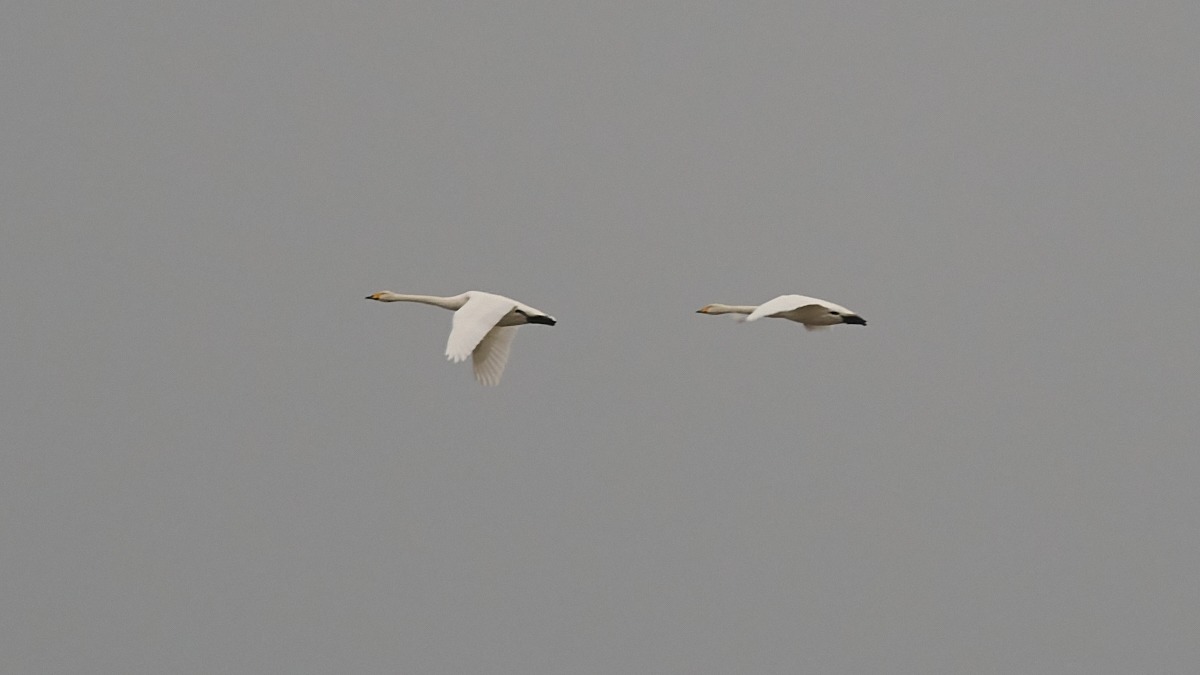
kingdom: Animalia
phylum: Chordata
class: Aves
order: Anseriformes
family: Anatidae
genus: Cygnus
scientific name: Cygnus cygnus
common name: Sangsvane
